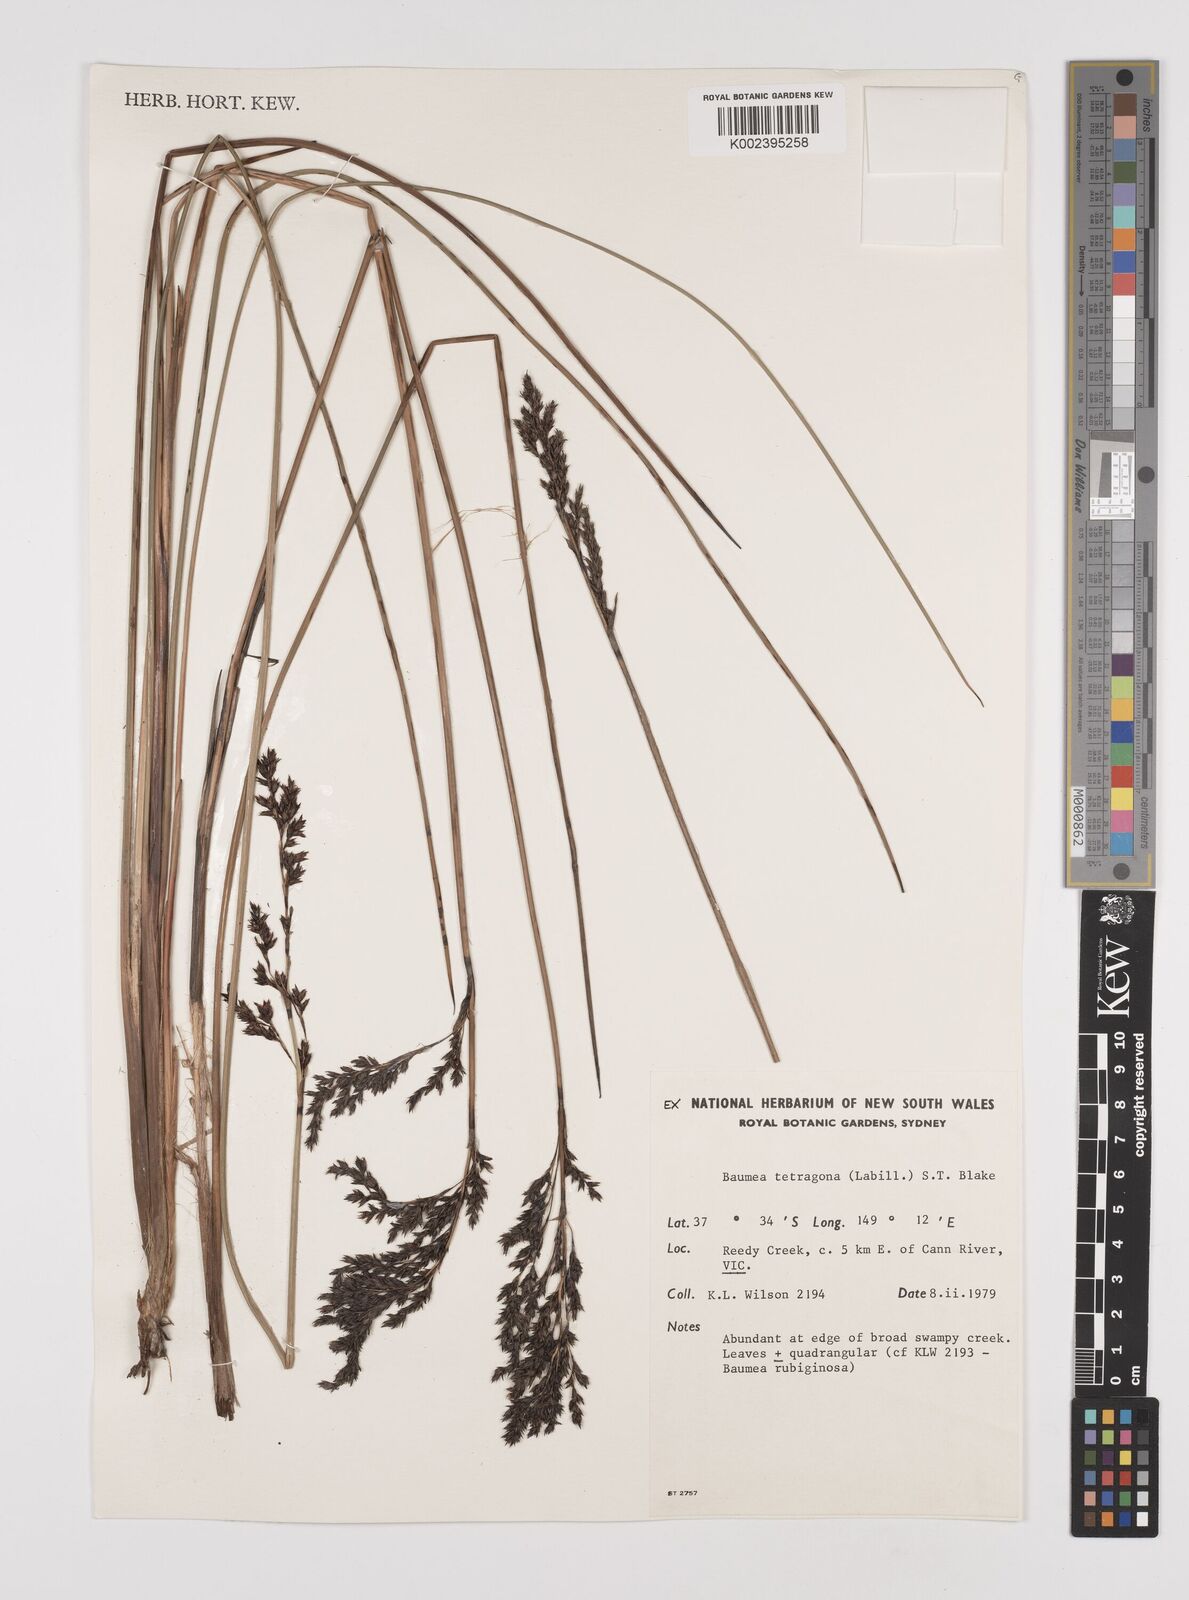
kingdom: Plantae
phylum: Tracheophyta
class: Liliopsida
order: Poales
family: Cyperaceae
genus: Machaerina
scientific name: Machaerina tetragona
